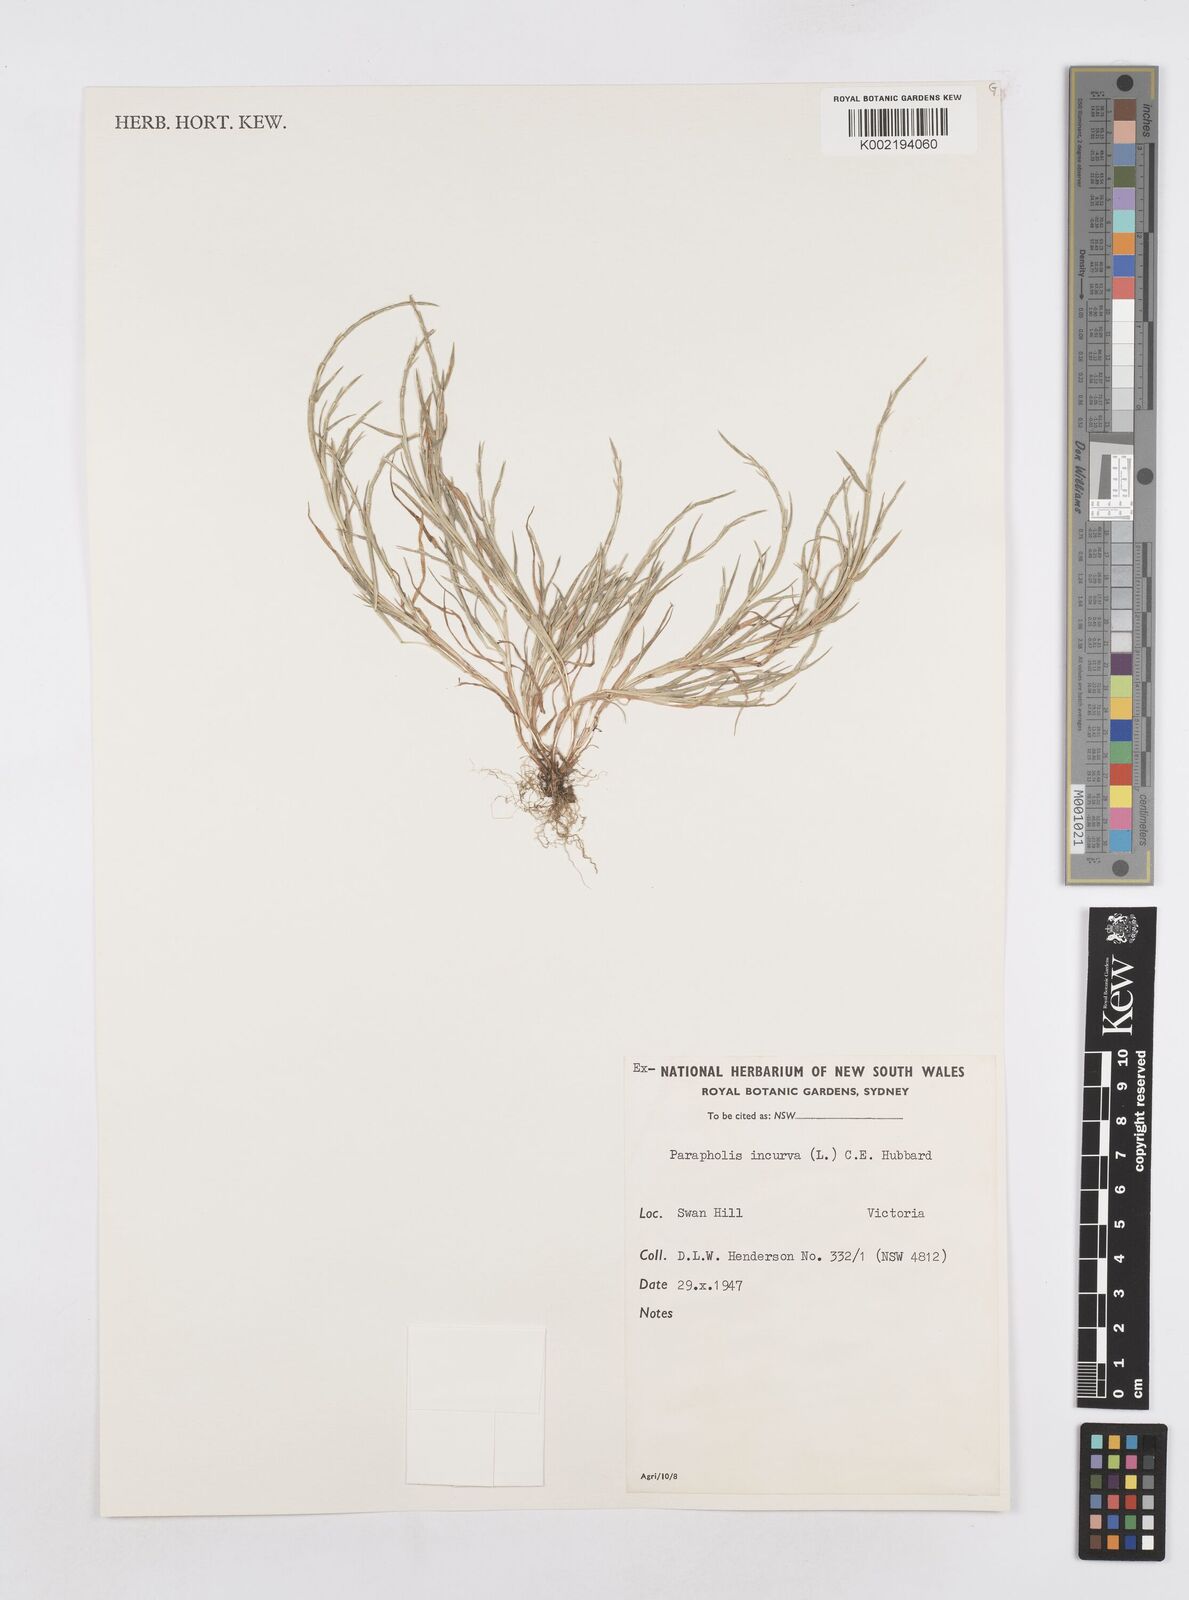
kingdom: Plantae
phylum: Tracheophyta
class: Liliopsida
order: Poales
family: Poaceae
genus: Parapholis
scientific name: Parapholis incurva
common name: Curved sicklegrass
